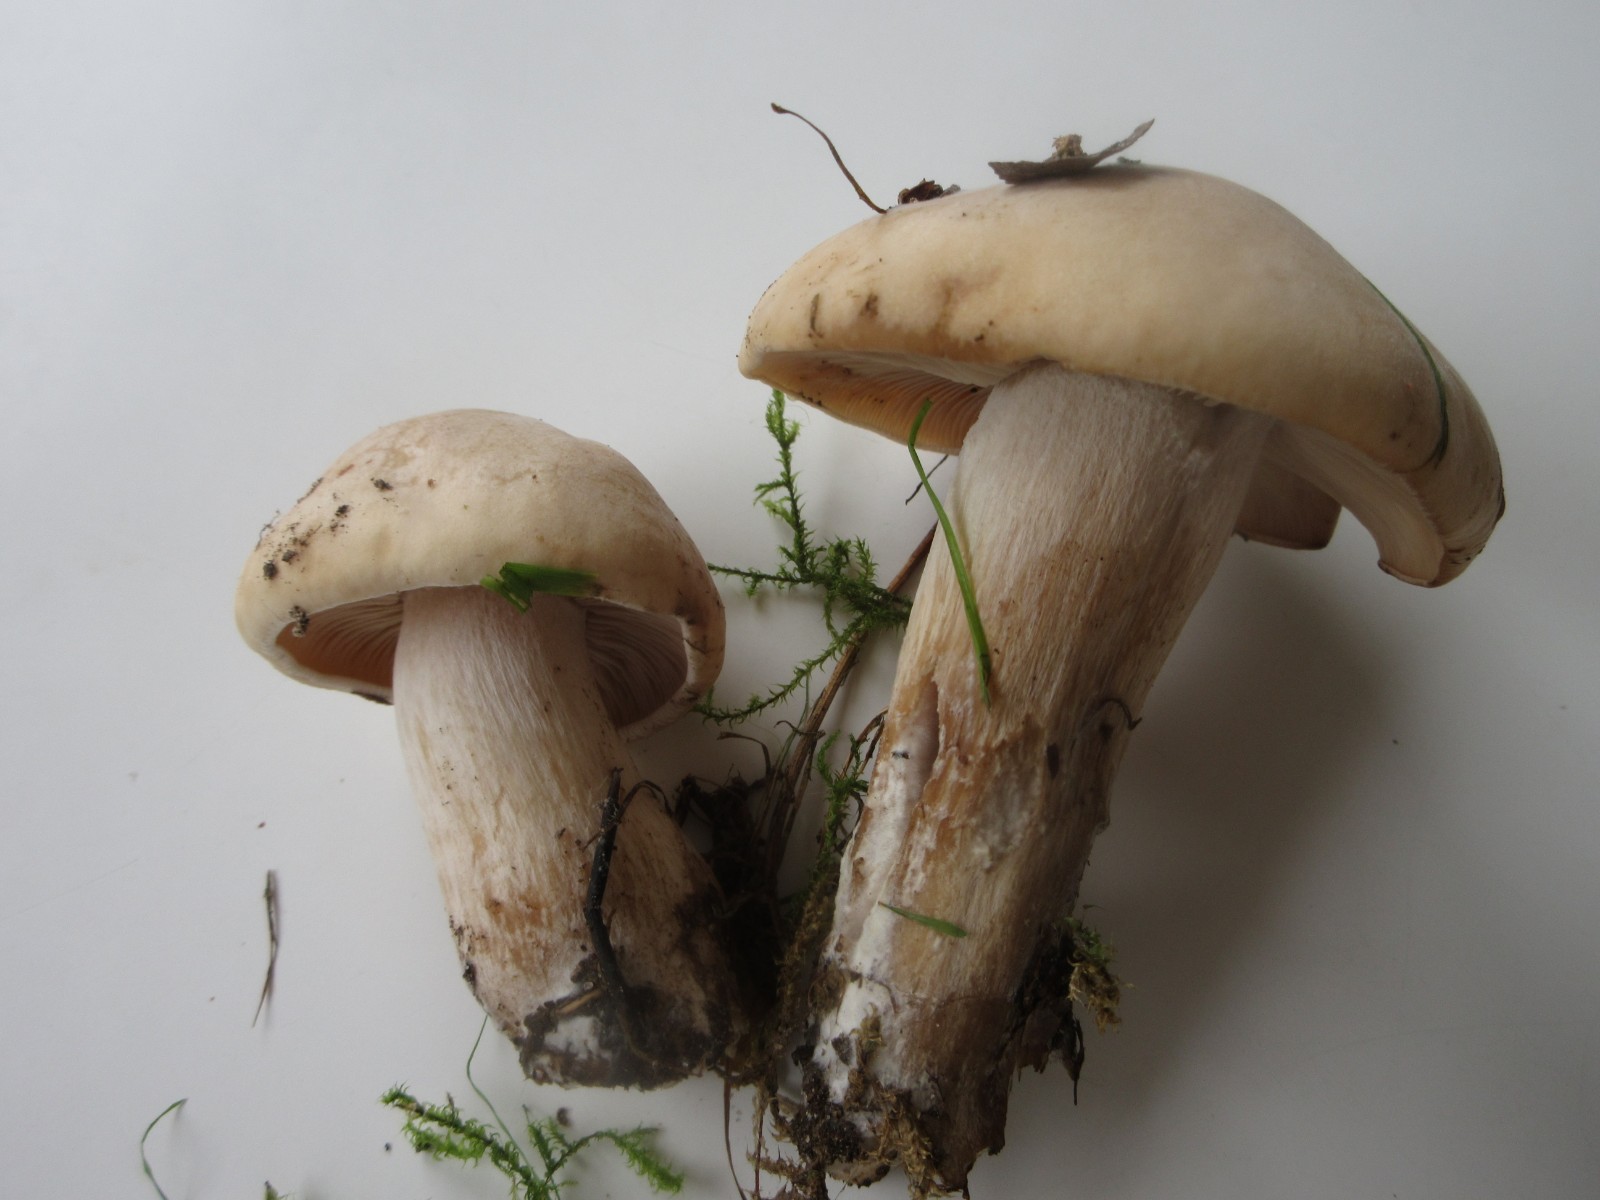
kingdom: Fungi
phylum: Basidiomycota
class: Agaricomycetes
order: Agaricales
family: Tricholomataceae
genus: Lepista
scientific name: Lepista irina
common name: violduftende hekseringshat
